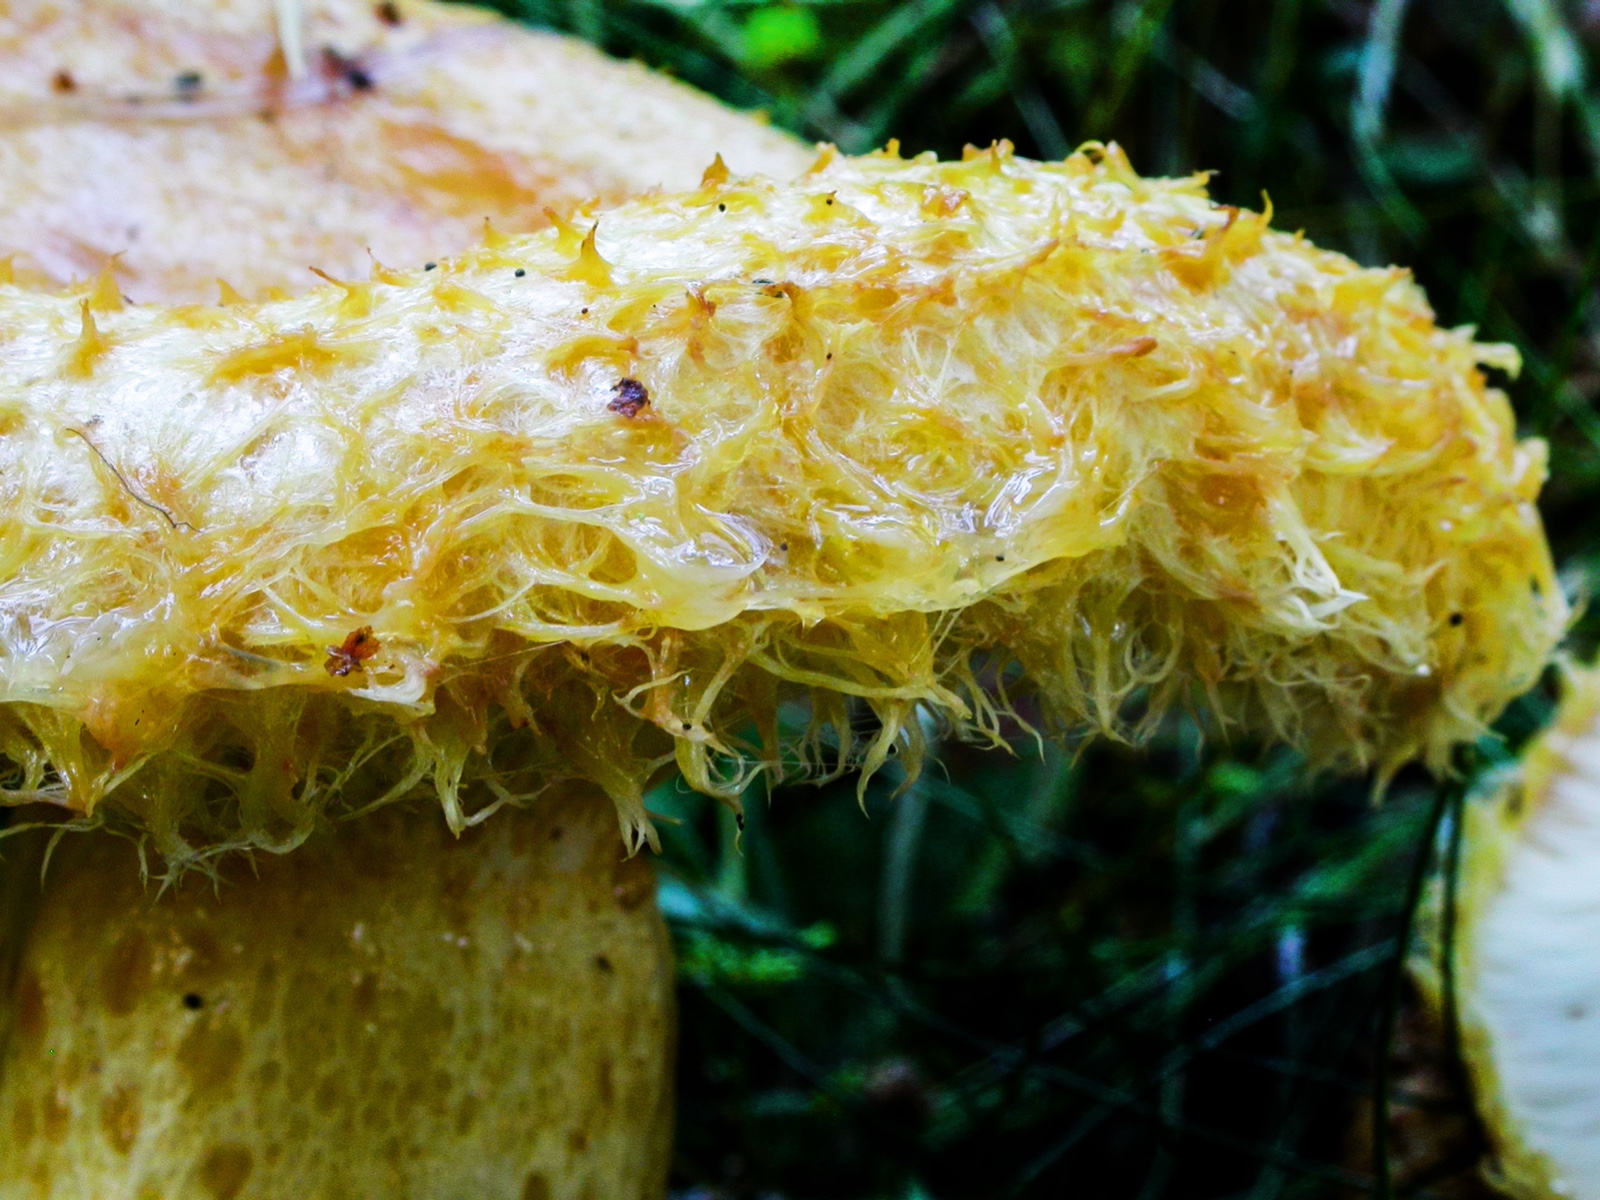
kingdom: Fungi
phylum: Basidiomycota
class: Agaricomycetes
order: Russulales
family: Russulaceae
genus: Lactarius
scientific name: Lactarius repraesentaneus
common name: prægtig mælkehat
